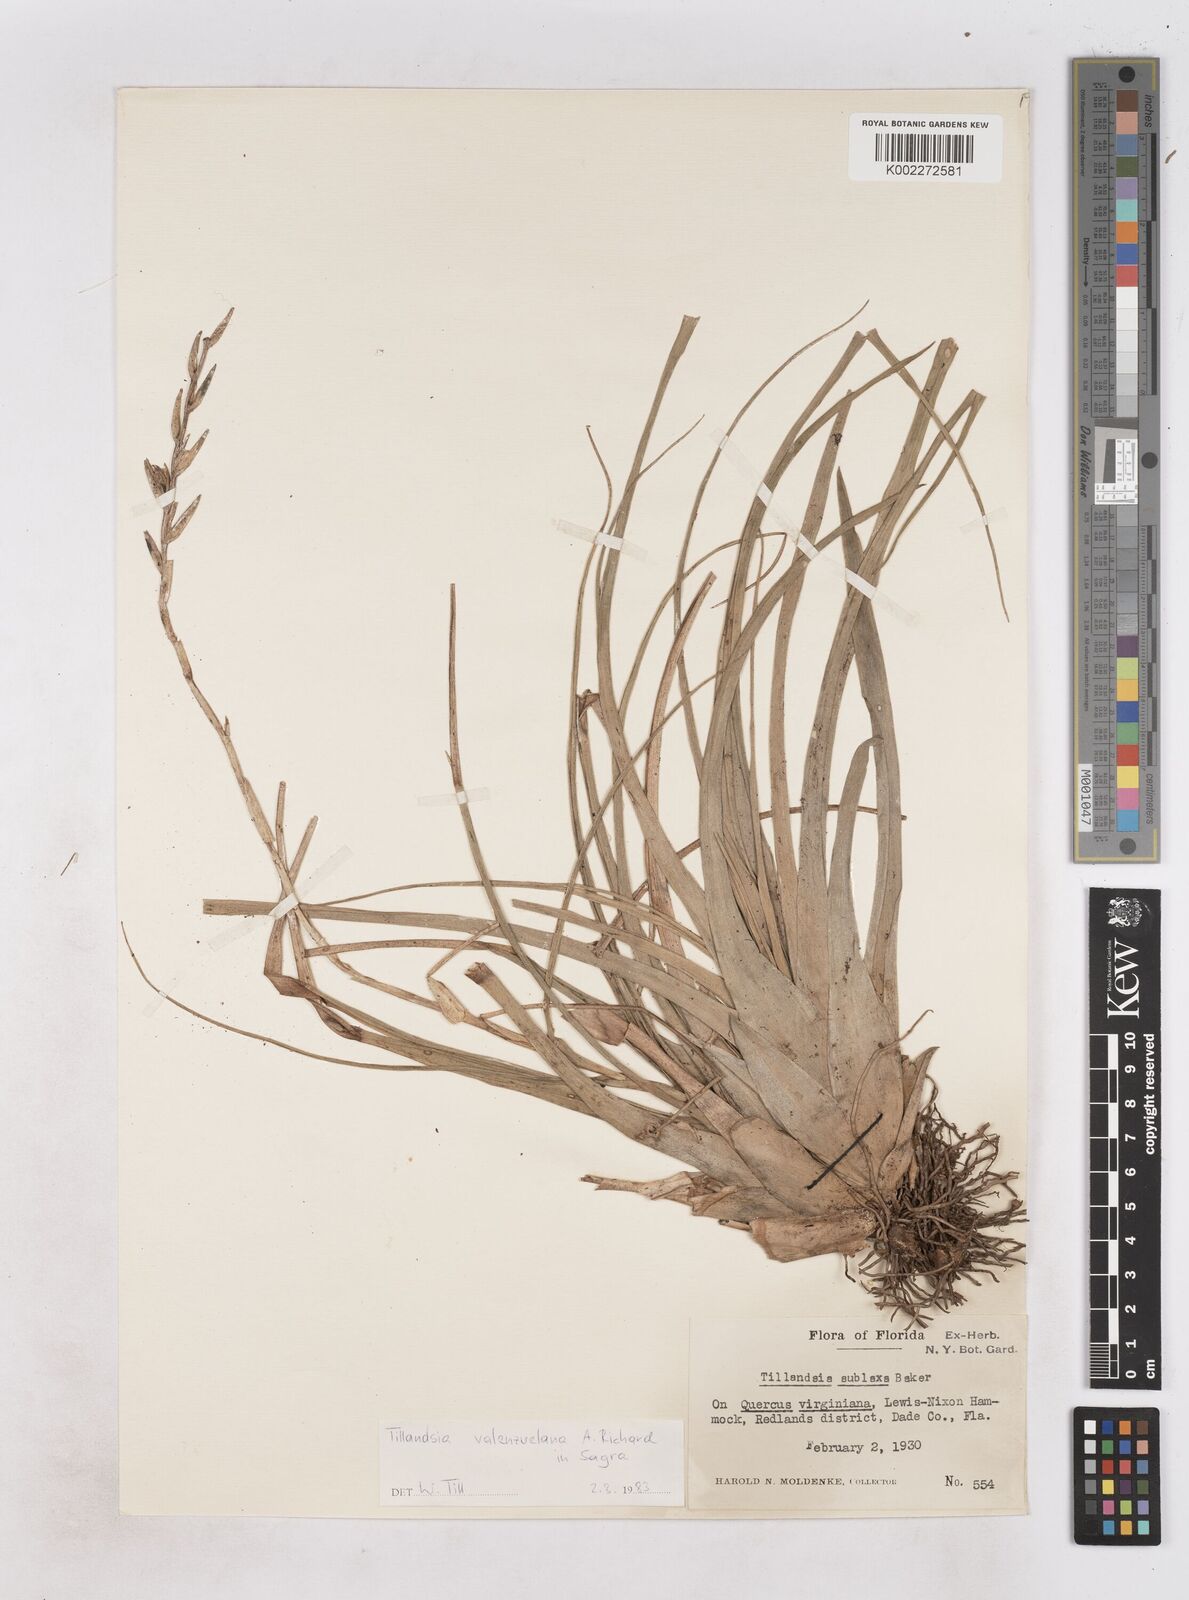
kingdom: Plantae
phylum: Tracheophyta
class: Liliopsida
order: Poales
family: Bromeliaceae
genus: Tillandsia
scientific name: Tillandsia variabilis
